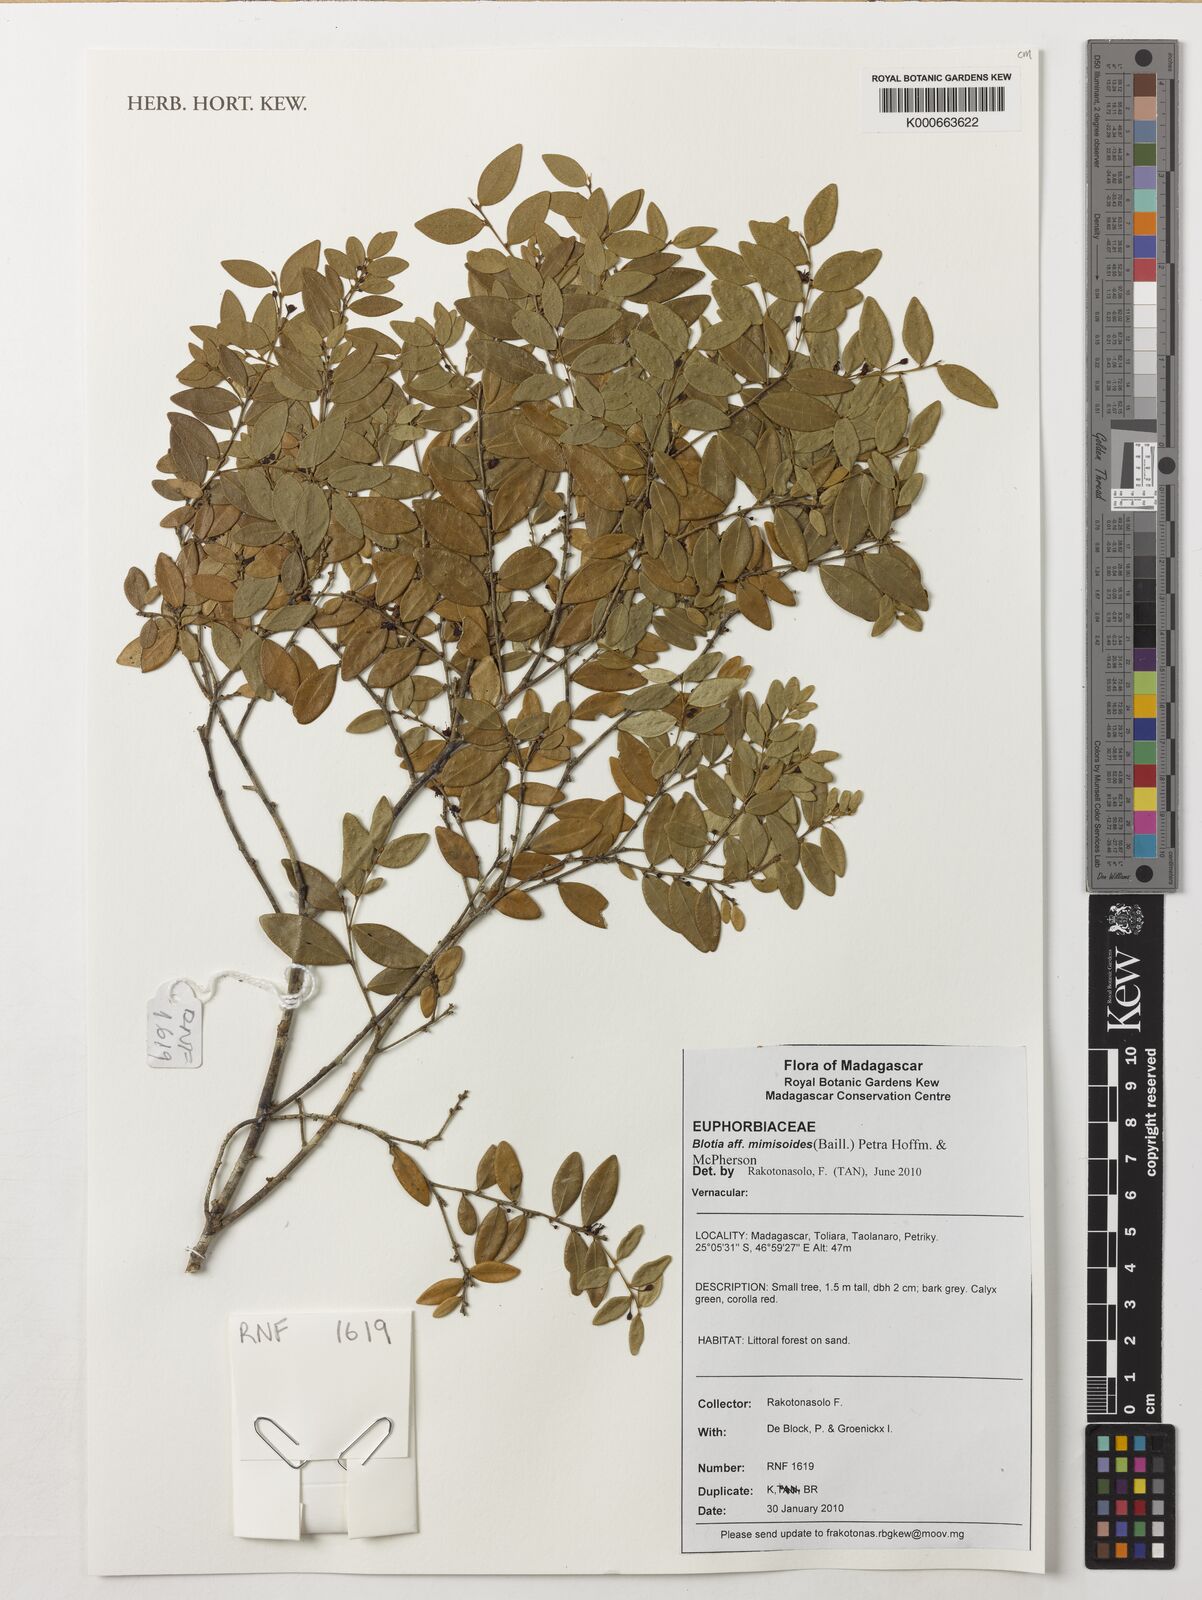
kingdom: Plantae
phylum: Tracheophyta
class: Magnoliopsida
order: Malpighiales
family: Phyllanthaceae
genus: Wielandia
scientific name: Wielandia mimosoides
